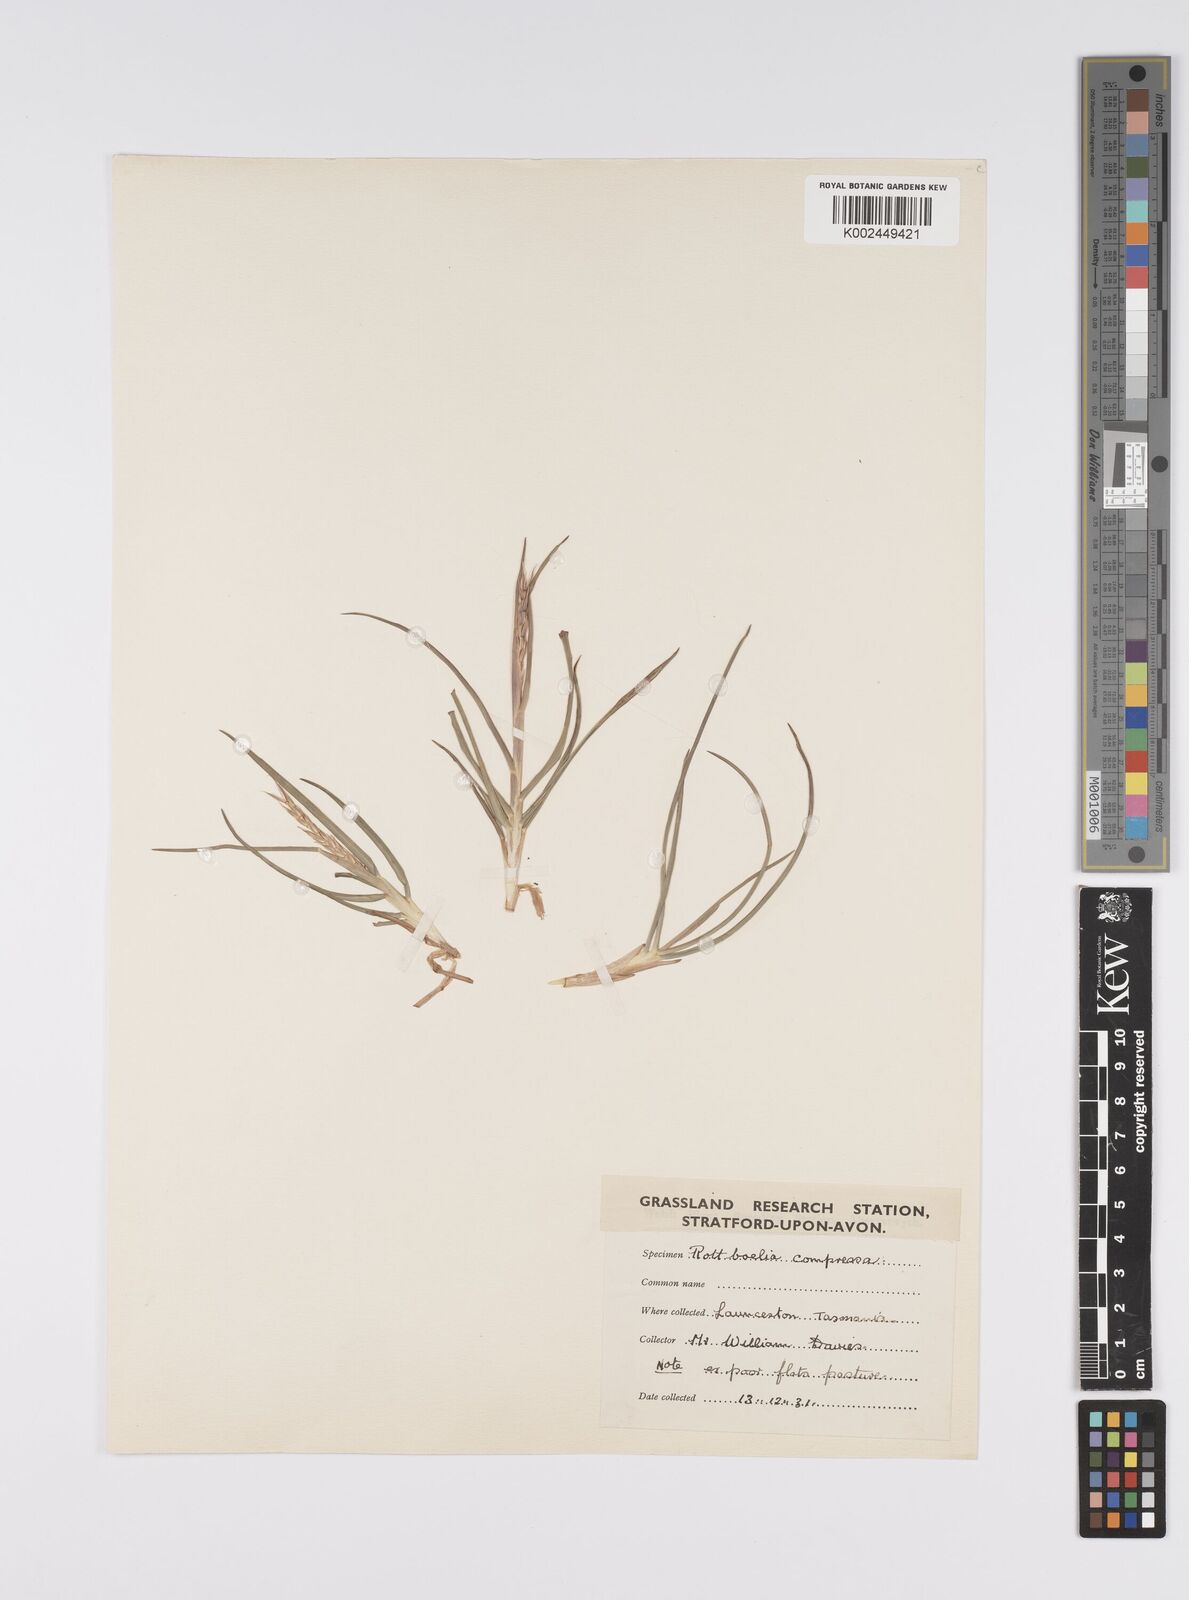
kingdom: Plantae
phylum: Tracheophyta
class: Liliopsida
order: Poales
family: Poaceae
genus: Hemarthria
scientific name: Hemarthria uncinata
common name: Matgrass
